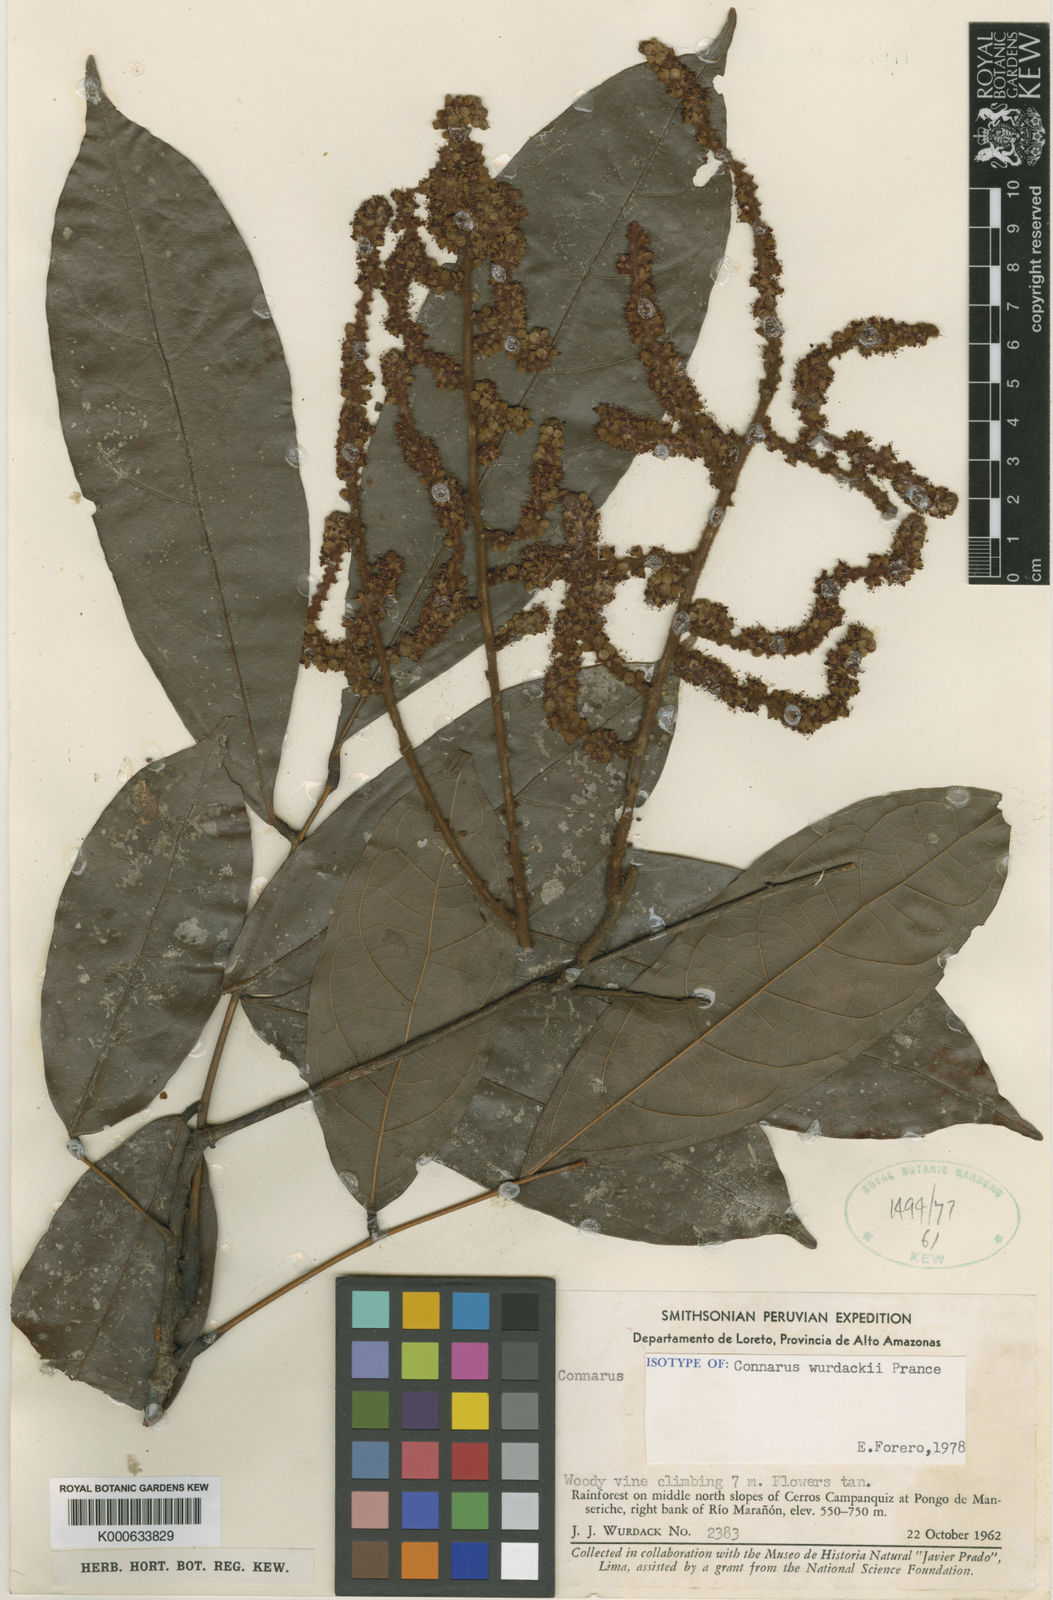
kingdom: Plantae
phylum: Tracheophyta
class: Magnoliopsida
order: Oxalidales
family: Connaraceae
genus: Connarus
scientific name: Connarus wurdackii
